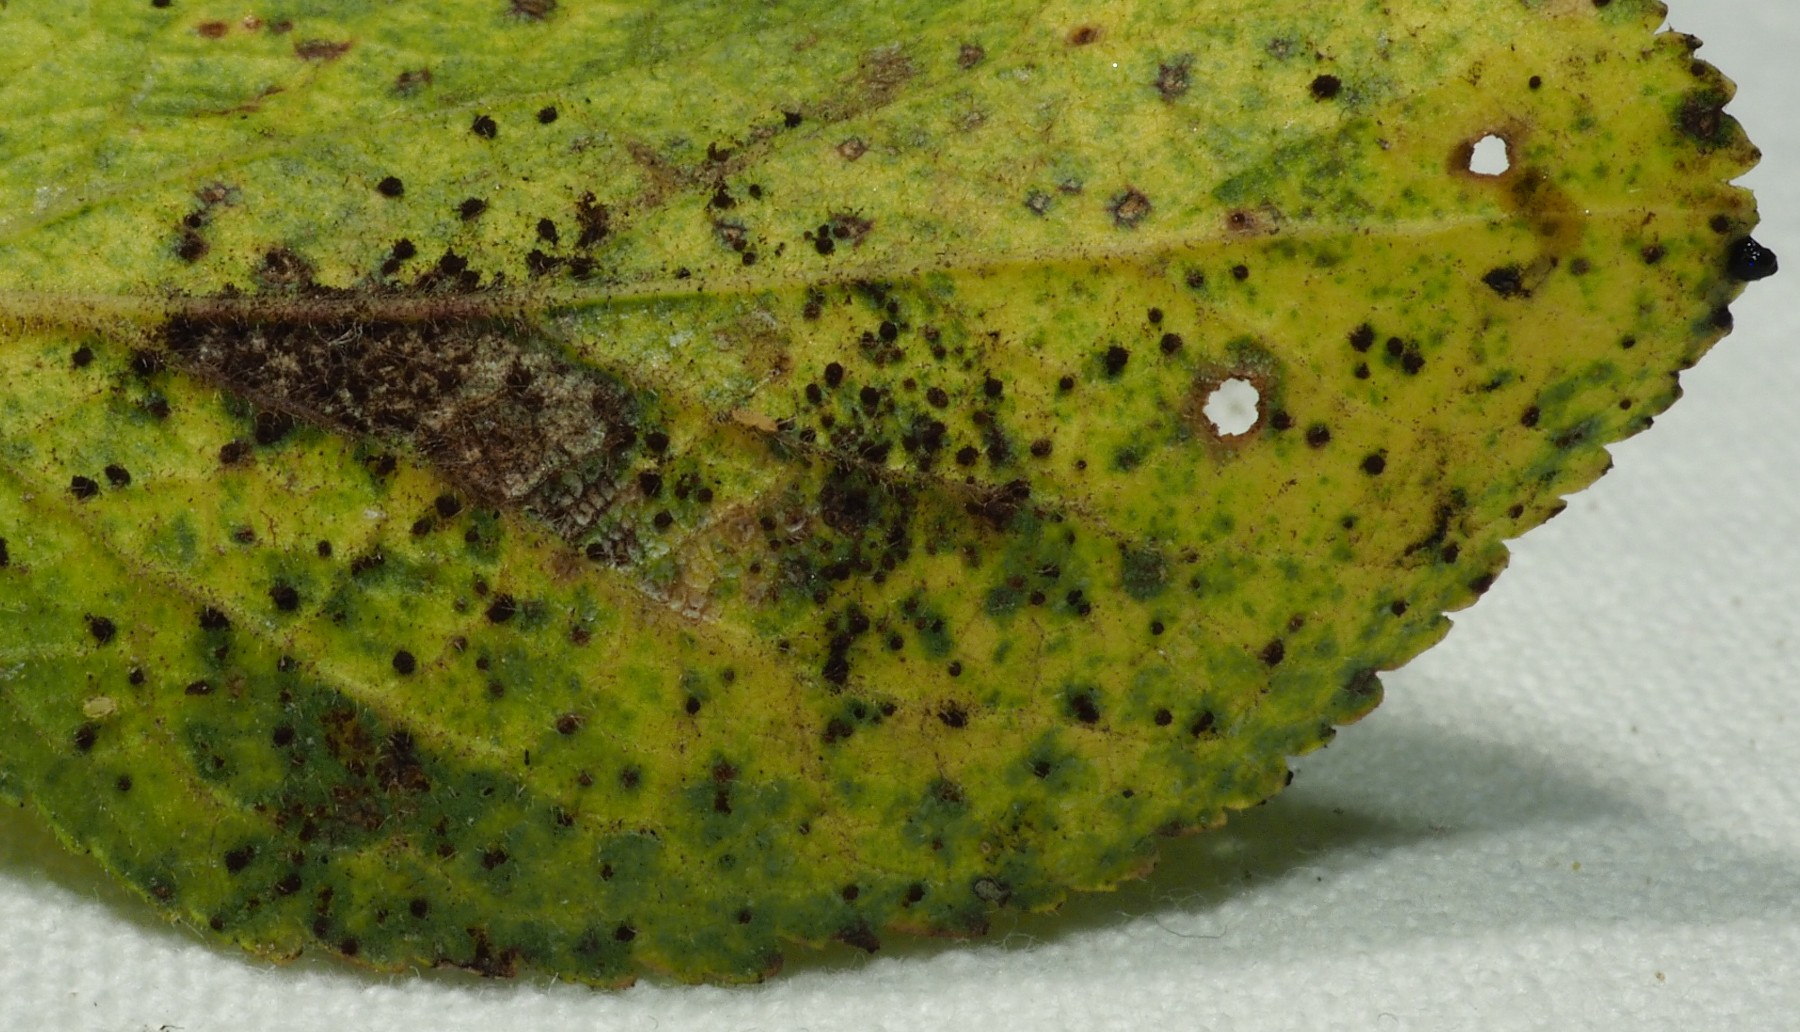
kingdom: Fungi
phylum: Basidiomycota
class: Pucciniomycetes
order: Pucciniales
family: Tranzscheliaceae
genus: Tranzschelia
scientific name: Tranzschelia pruni-spinosae
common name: Blackthorn rust
